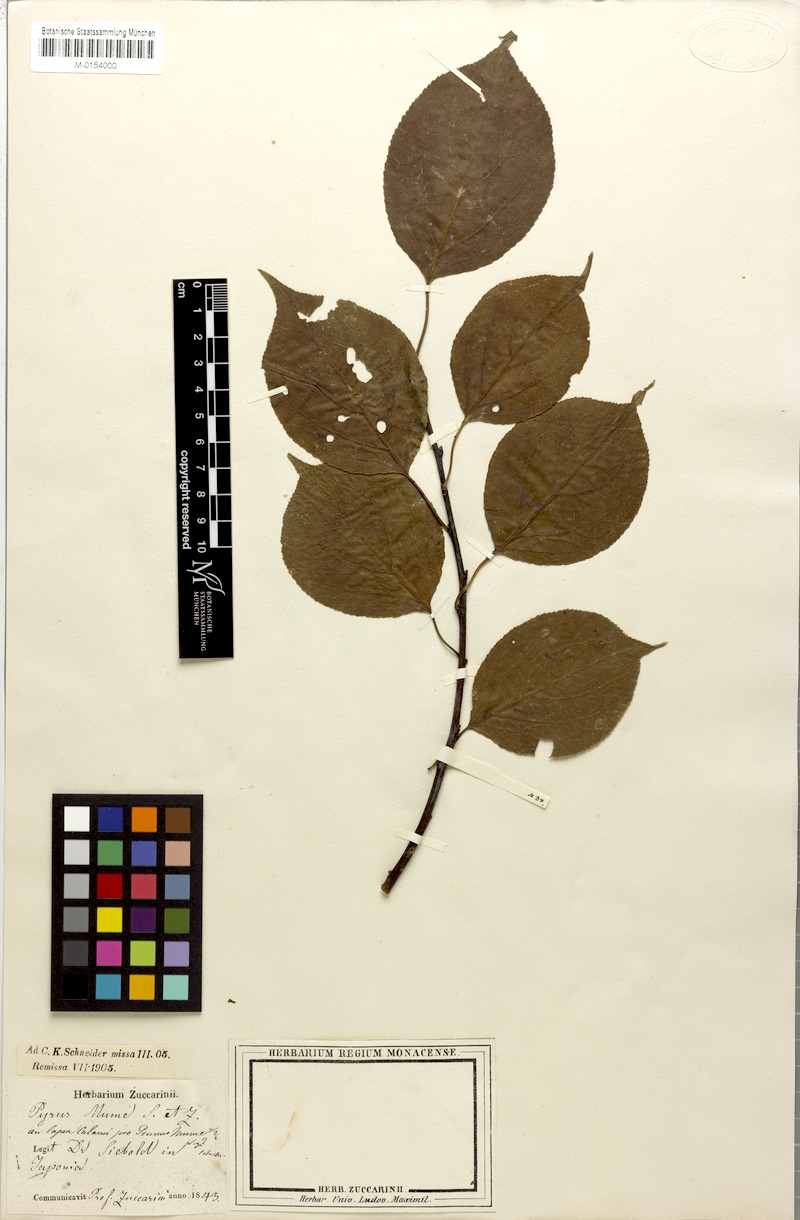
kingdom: Plantae
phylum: Tracheophyta
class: Magnoliopsida
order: Rosales
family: Rosaceae
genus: Prunus
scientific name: Prunus mume
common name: Japanese apricot
